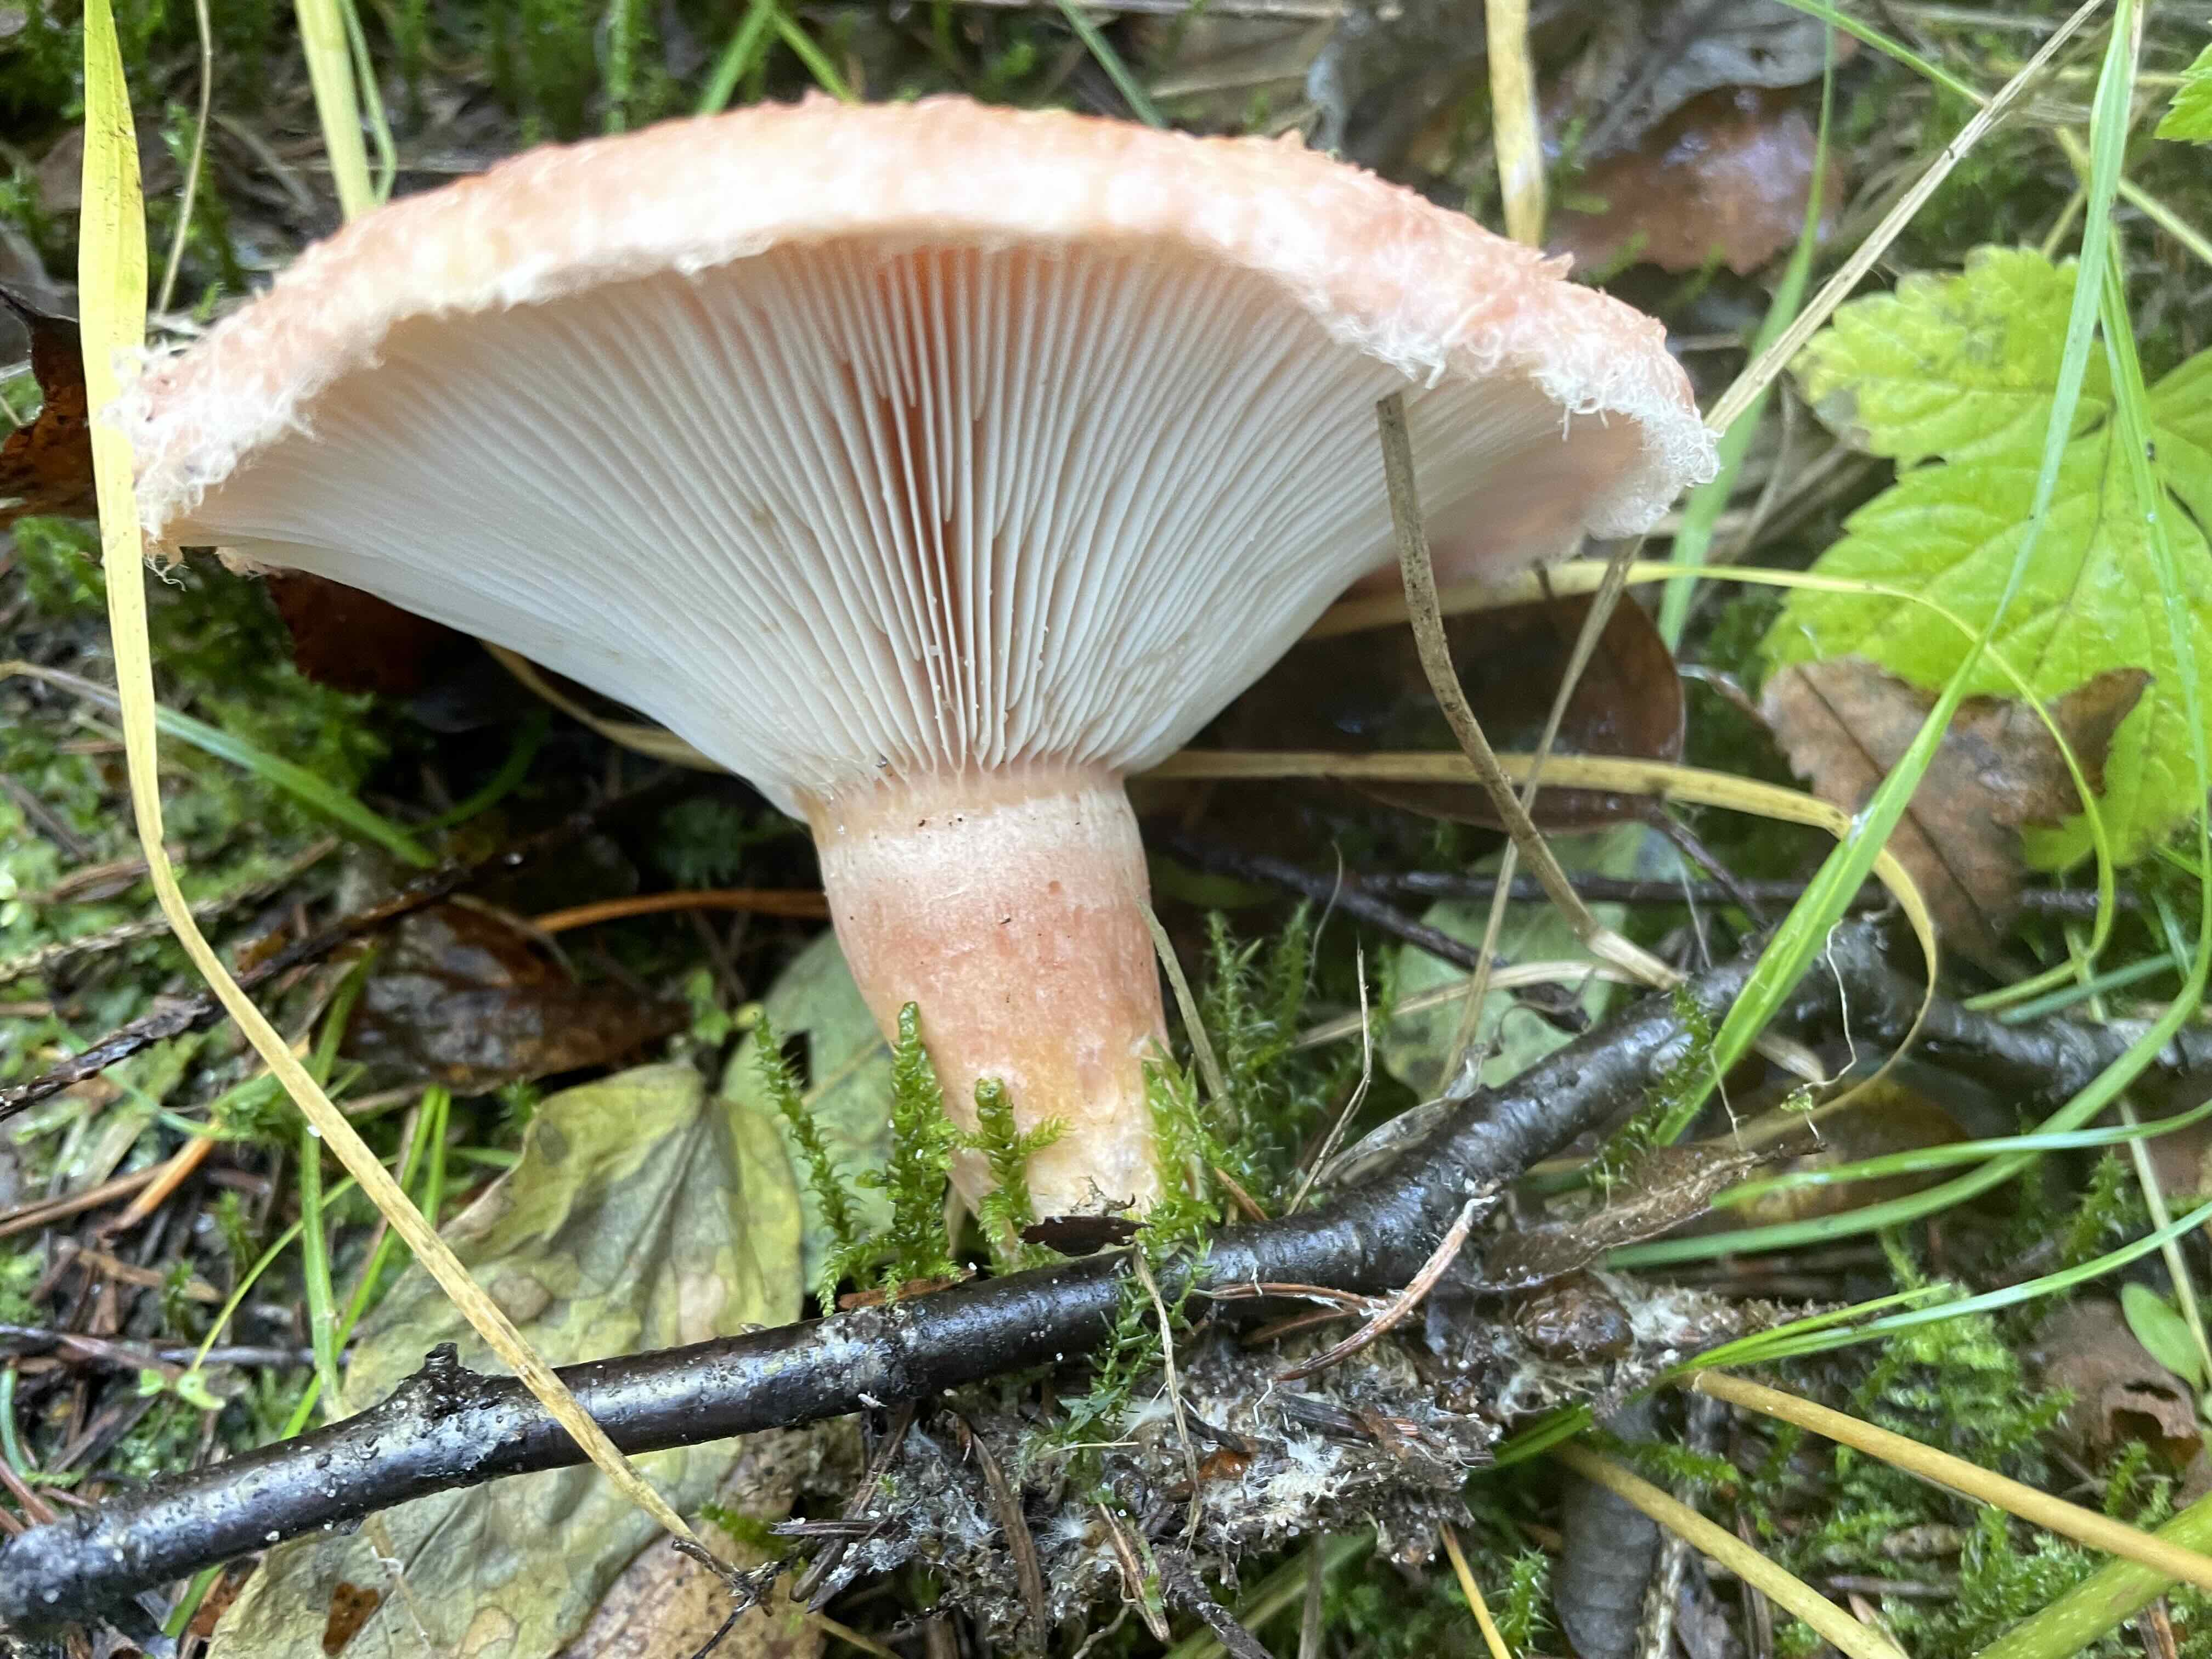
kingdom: Fungi
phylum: Basidiomycota
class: Agaricomycetes
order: Russulales
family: Russulaceae
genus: Lactarius
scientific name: Lactarius torminosus
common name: skægget mælkehat
